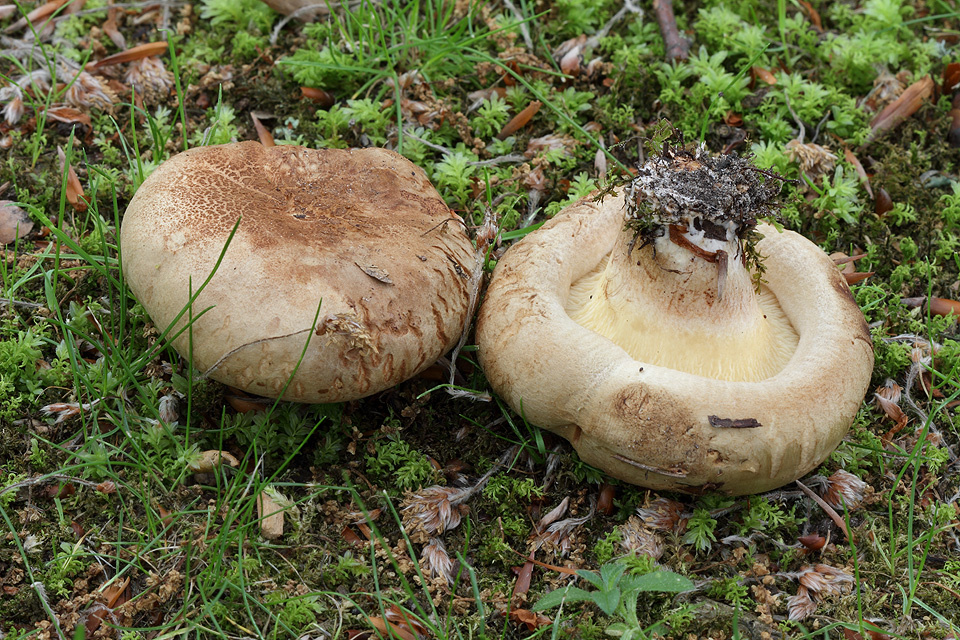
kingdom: Fungi
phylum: Basidiomycota
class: Agaricomycetes
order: Boletales
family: Paxillaceae
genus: Paxillus
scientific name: Paxillus obscurisporus
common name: mahognisporet netbladhat
